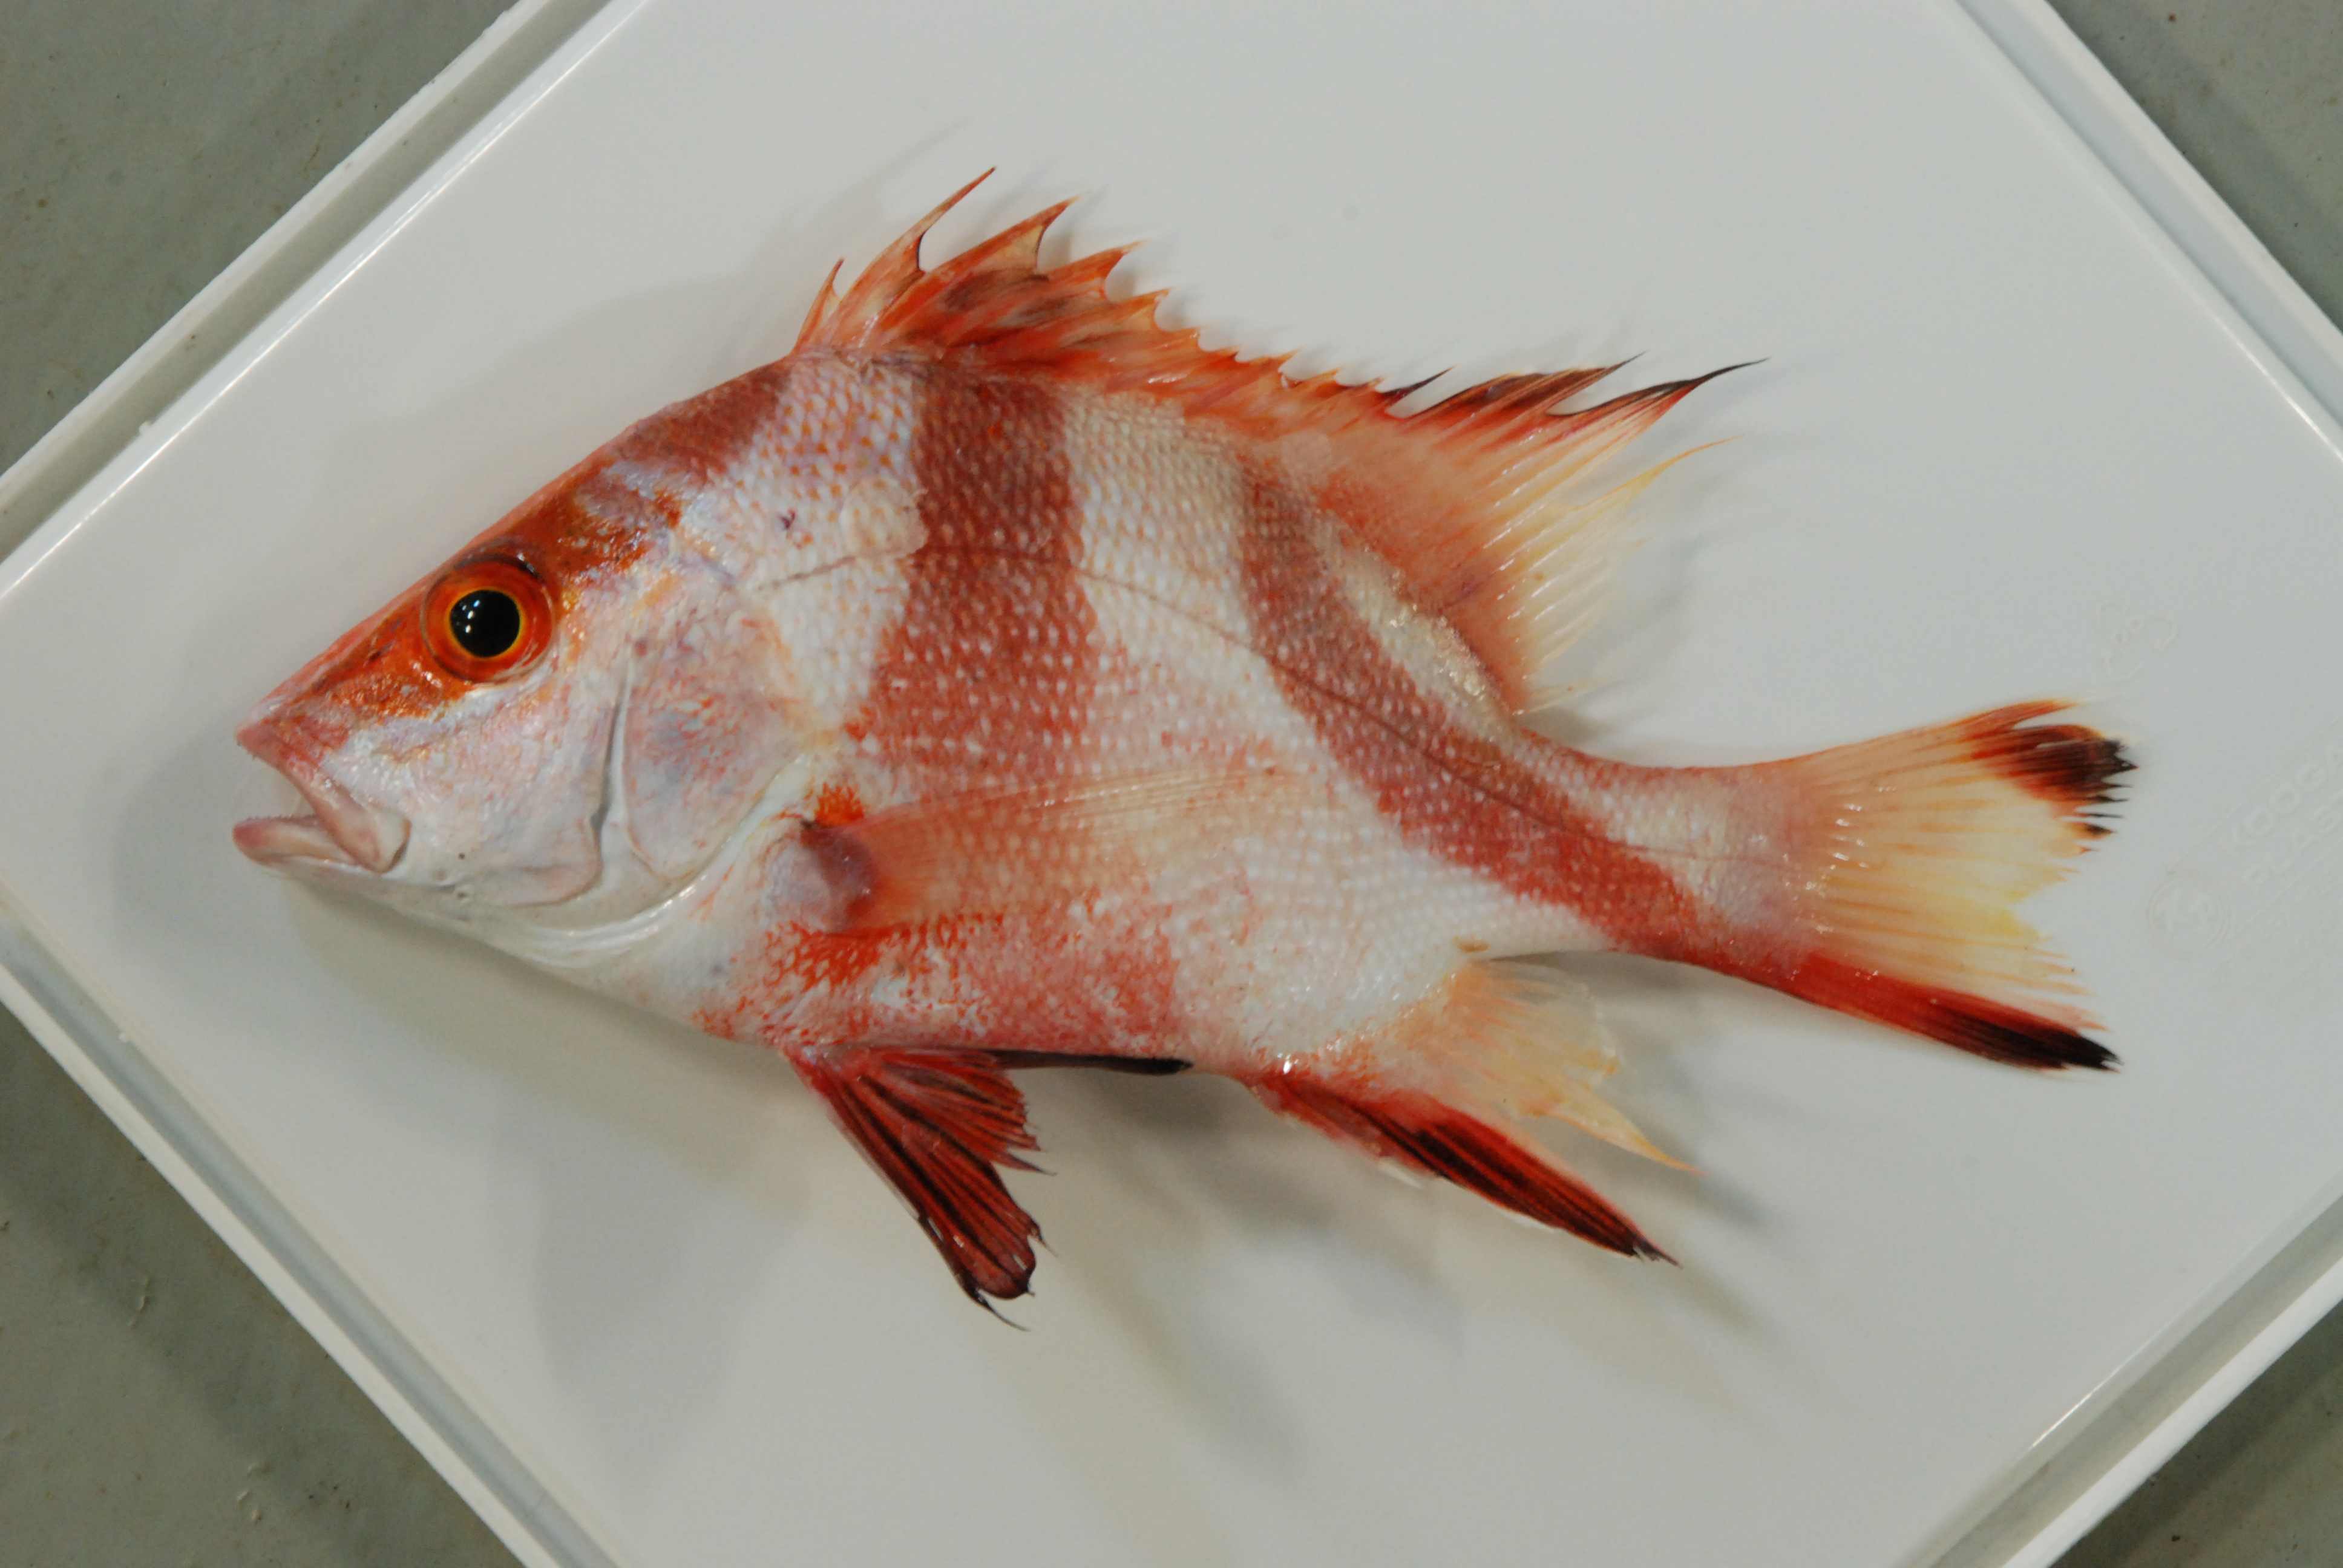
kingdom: Animalia
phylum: Chordata
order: Perciformes
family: Lutjanidae
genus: Lutjanus
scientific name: Lutjanus sebae
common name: Emperor red snapper
